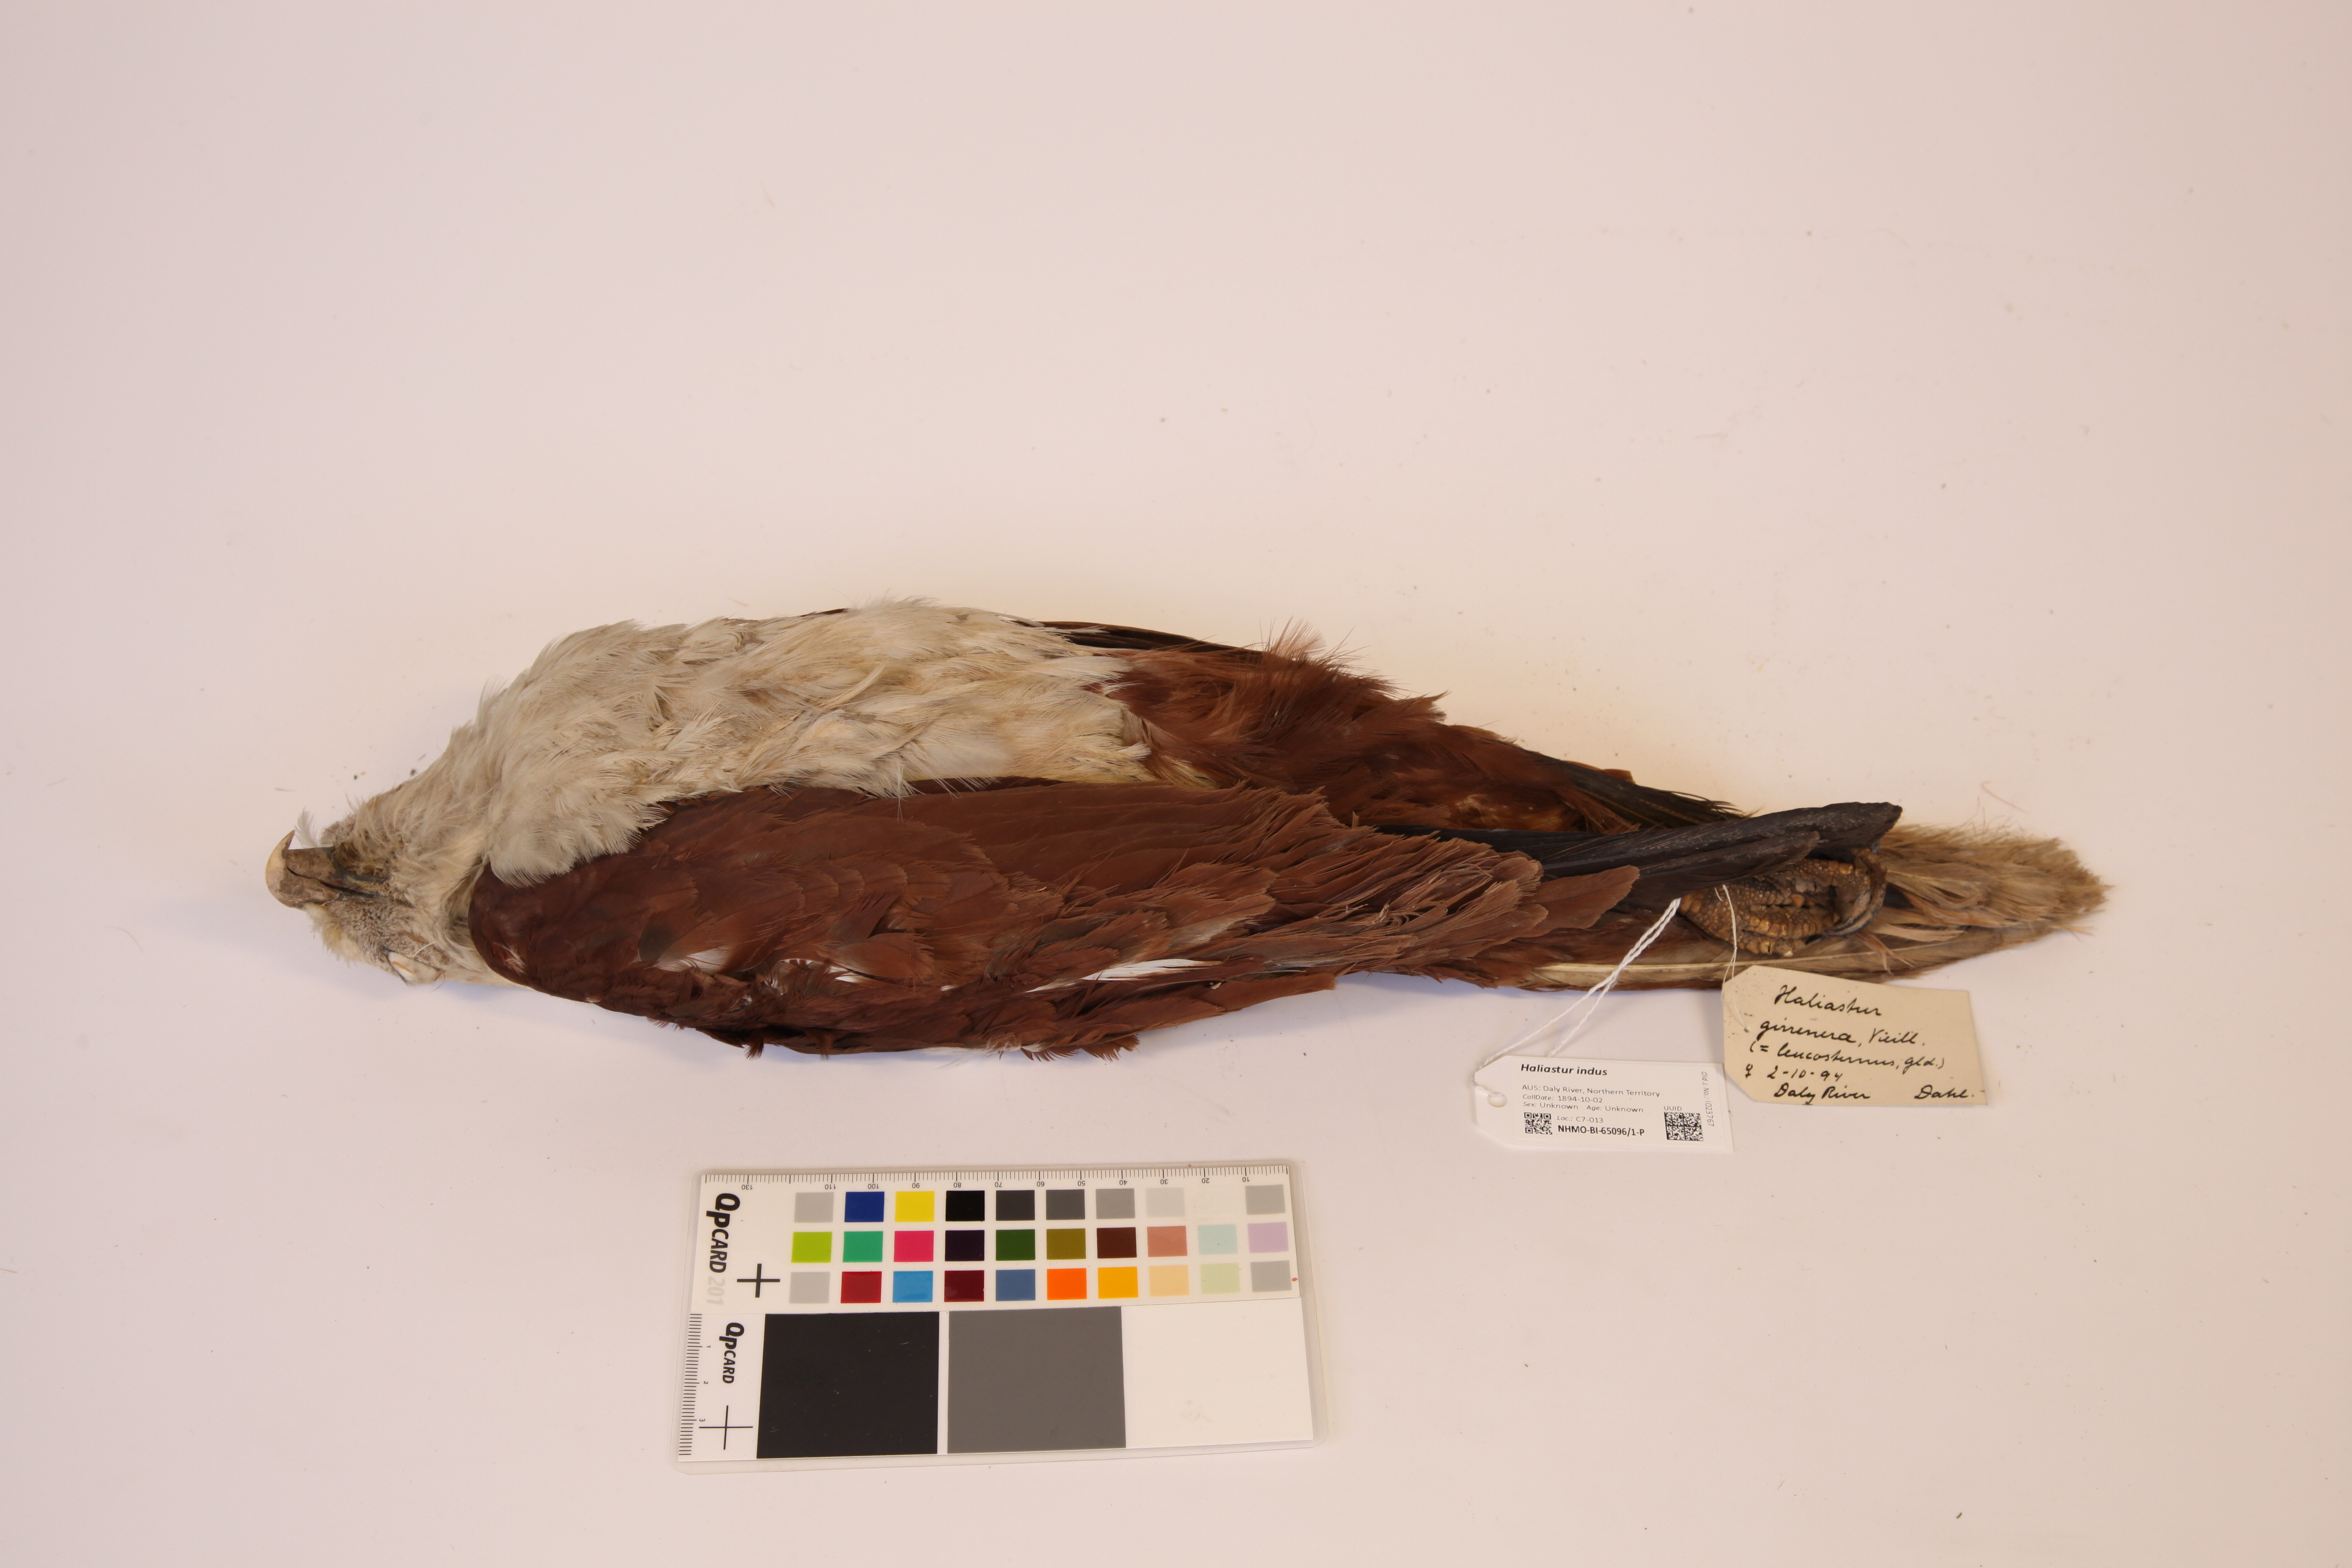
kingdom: Animalia
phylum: Chordata
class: Aves
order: Accipitriformes
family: Accipitridae
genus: Haliastur
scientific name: Haliastur indus
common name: Brahminy kite
